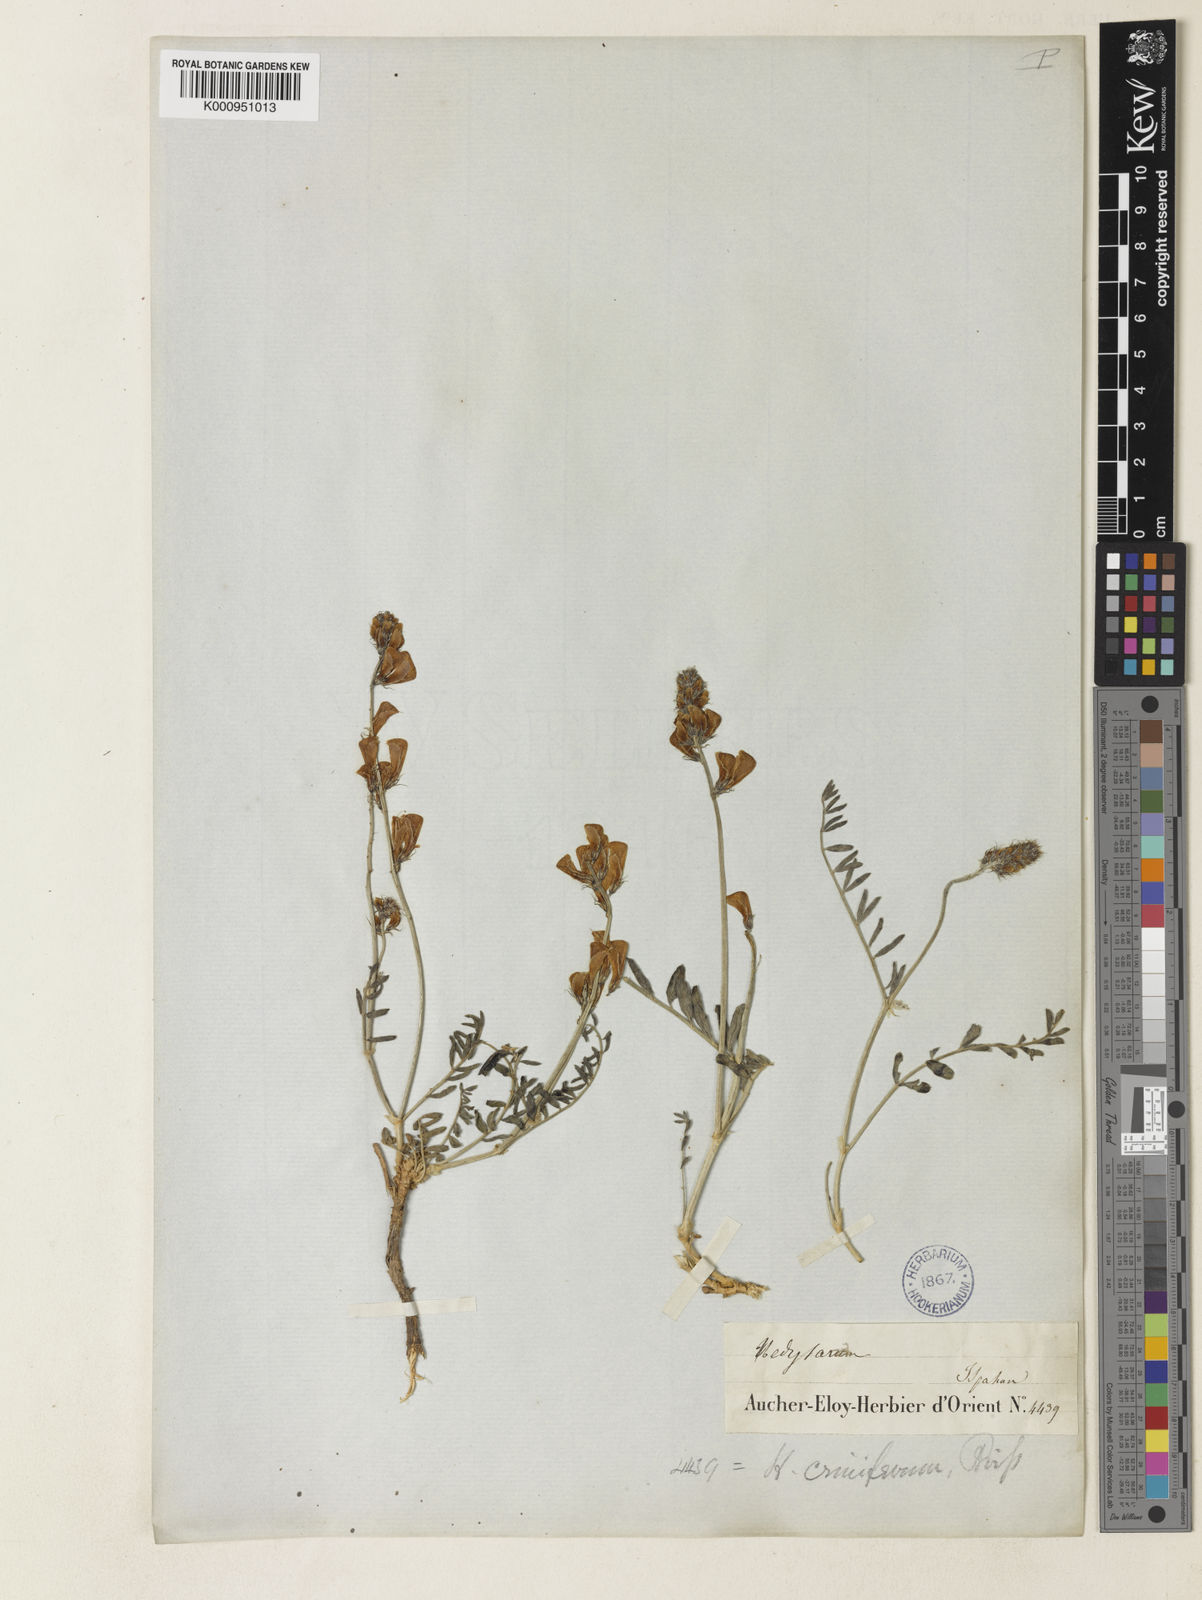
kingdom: Plantae
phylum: Tracheophyta
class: Magnoliopsida
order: Fabales
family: Fabaceae
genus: Hedysarum
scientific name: Hedysarum criniferum
